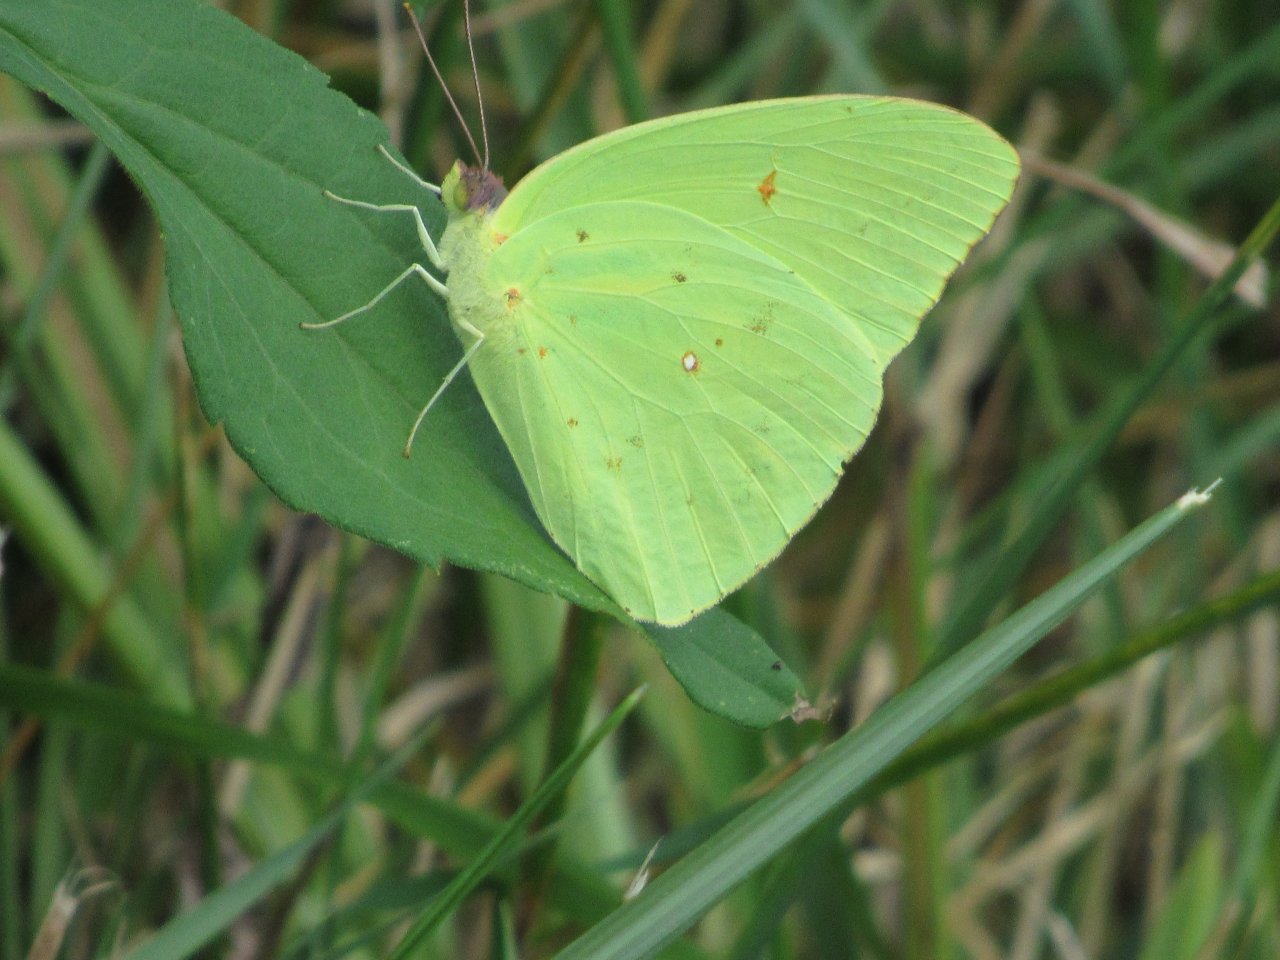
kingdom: Animalia
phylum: Arthropoda
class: Insecta
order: Lepidoptera
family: Pieridae
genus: Phoebis
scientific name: Phoebis sennae
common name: Cloudless Sulphur
